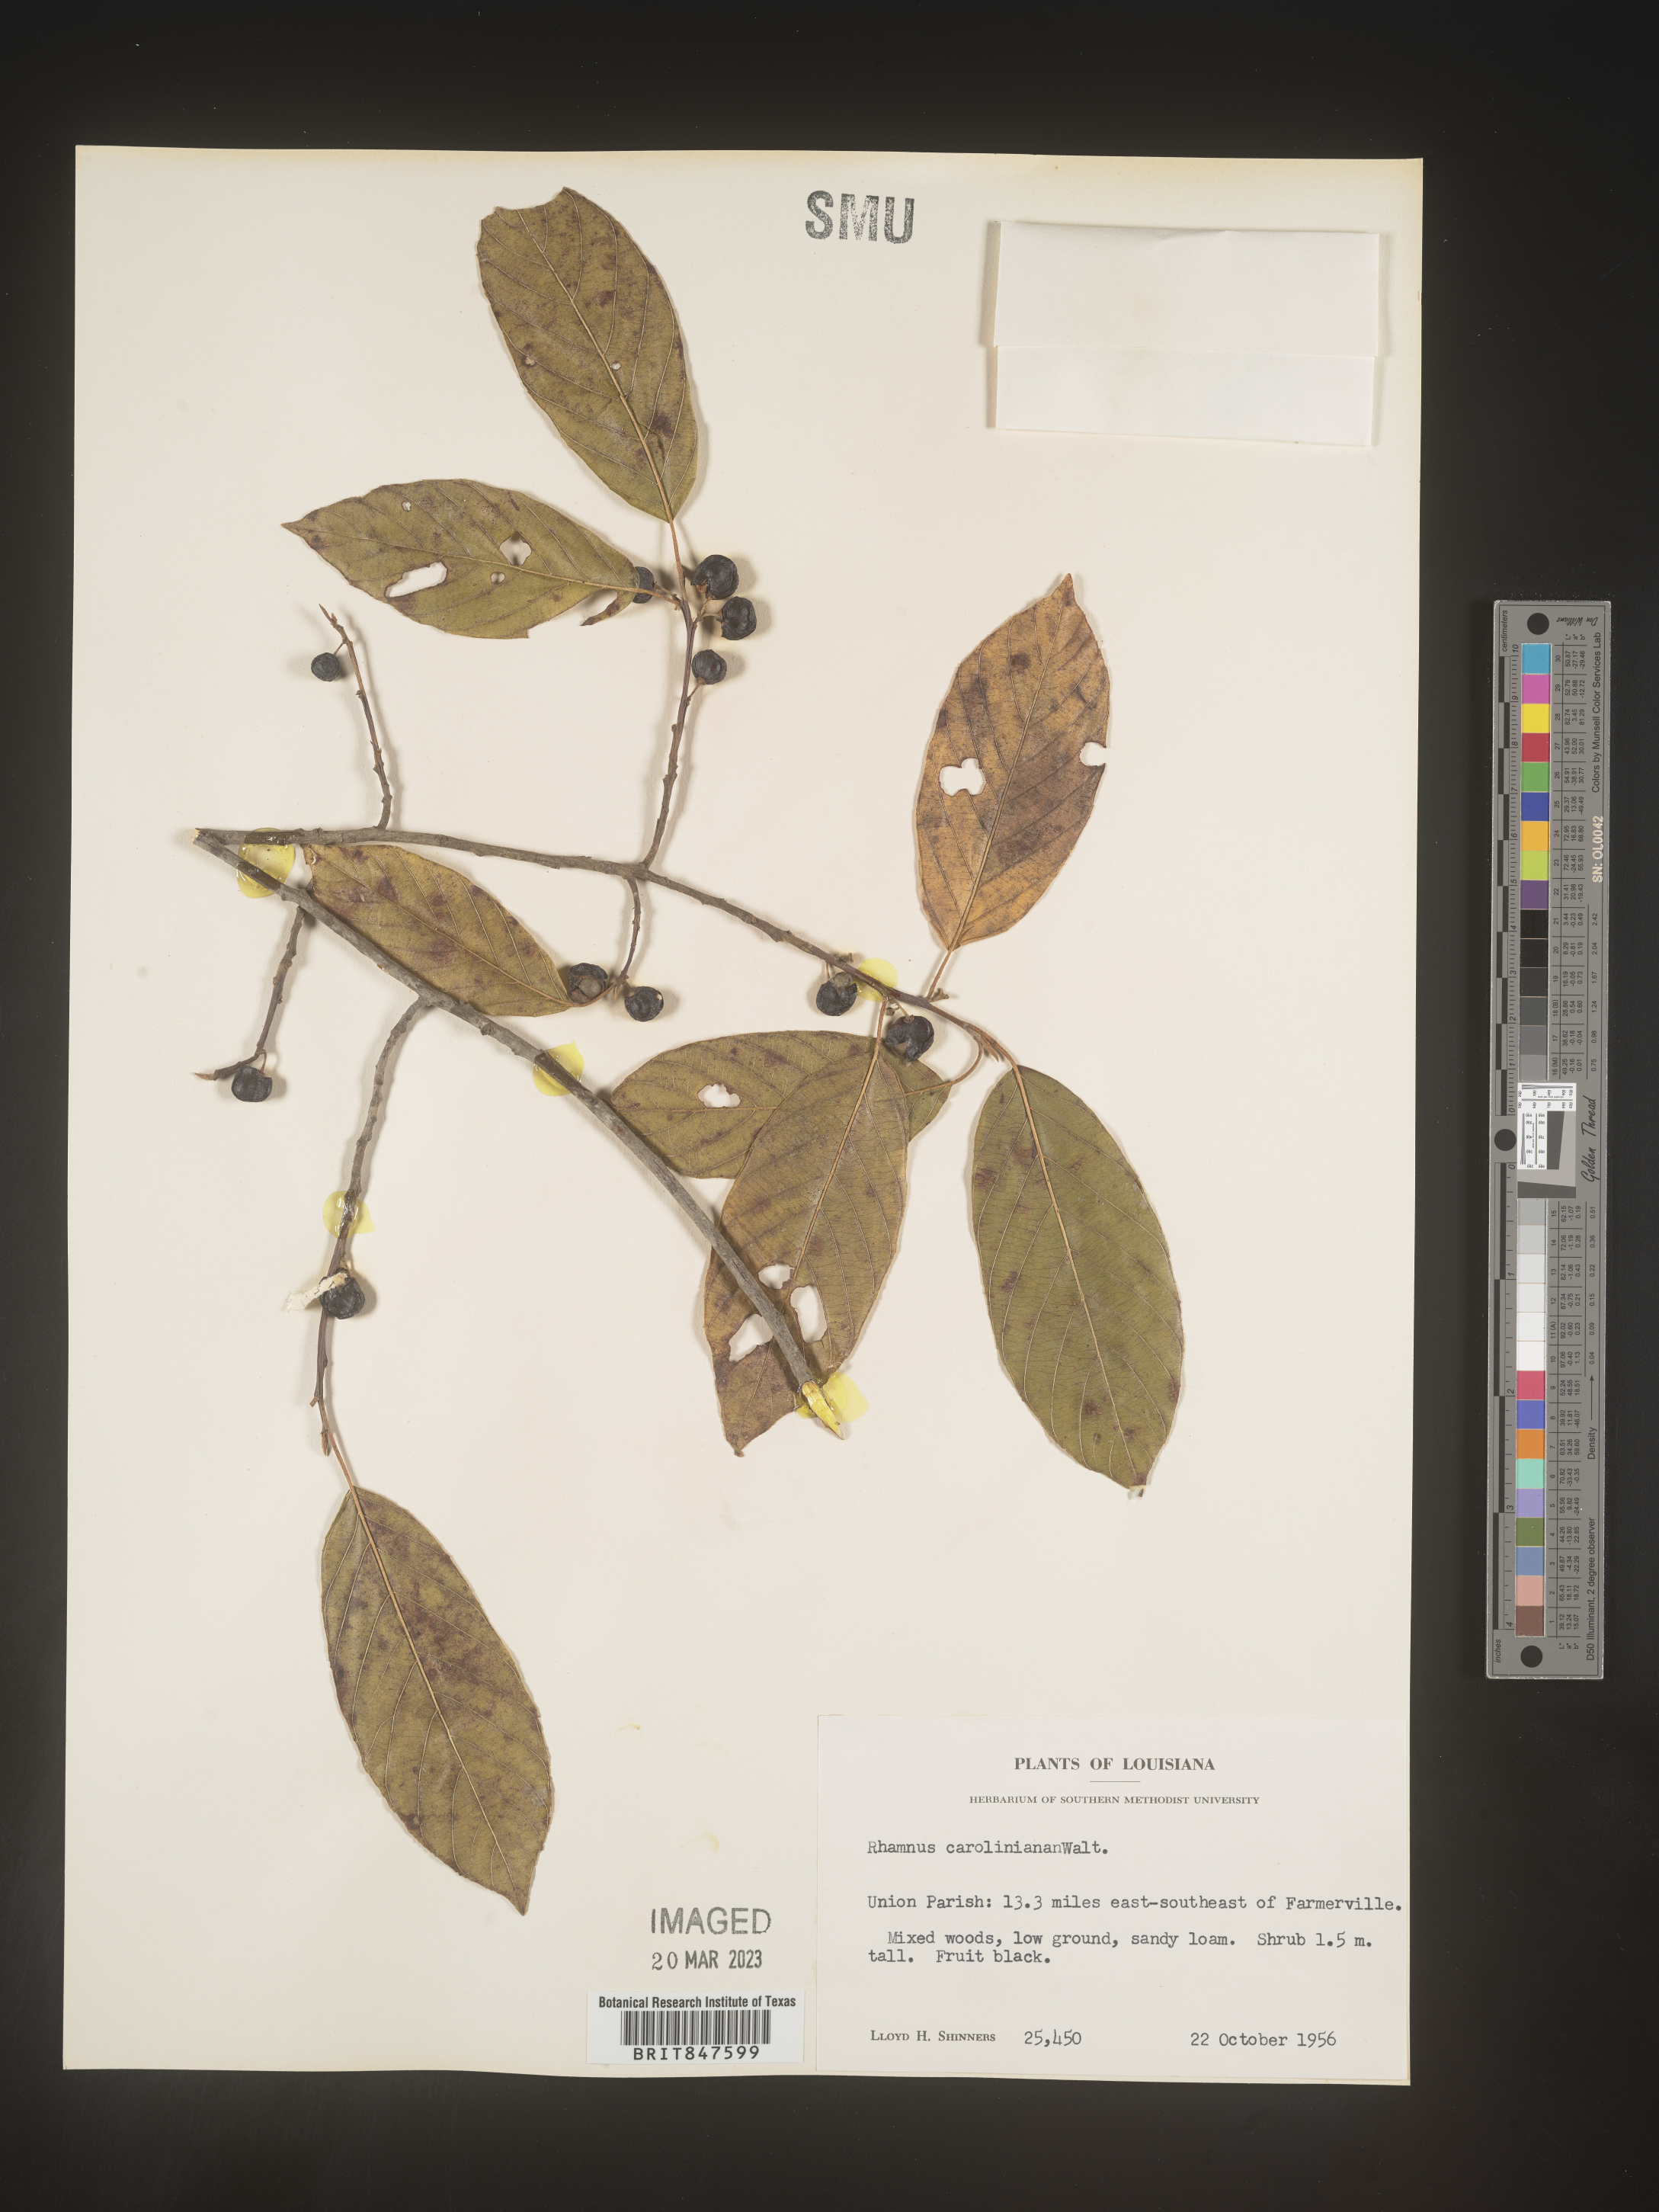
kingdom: Plantae
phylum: Tracheophyta
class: Magnoliopsida
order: Rosales
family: Rhamnaceae
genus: Frangula
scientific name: Frangula caroliniana
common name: Carolina buckthorn
